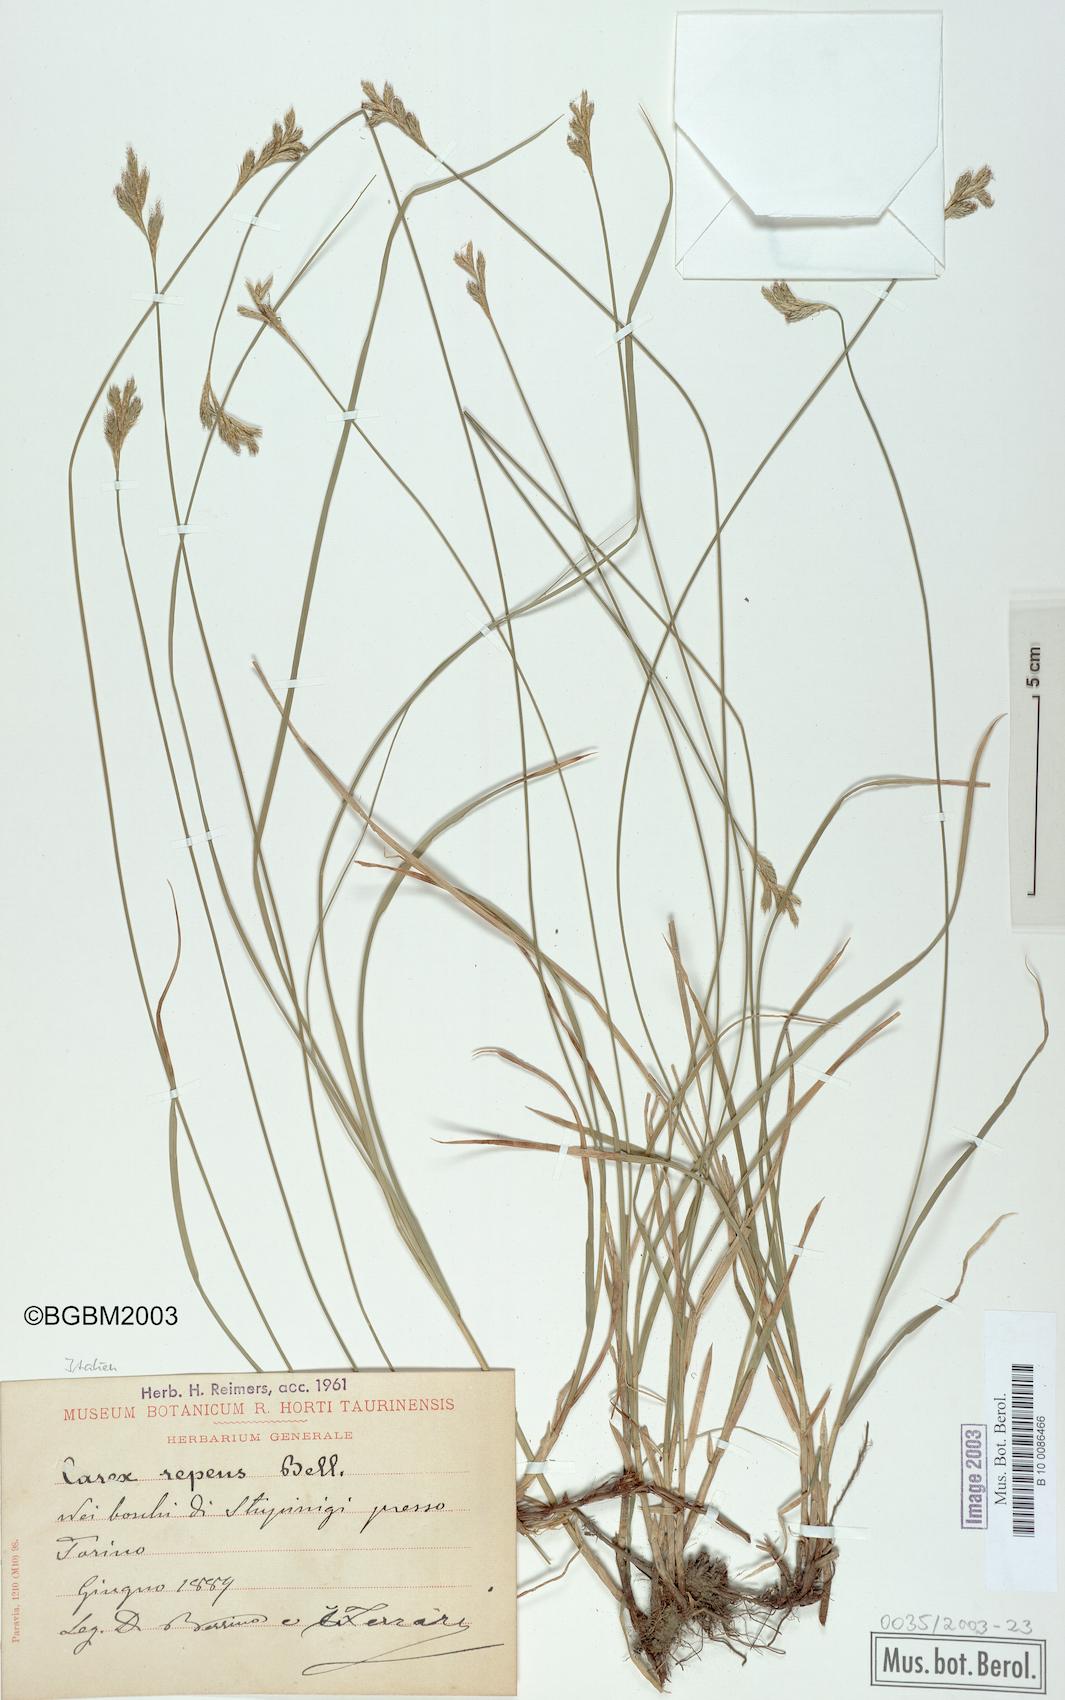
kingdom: Plantae
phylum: Tracheophyta
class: Liliopsida
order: Poales
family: Cyperaceae
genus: Carex
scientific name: Carex repens
